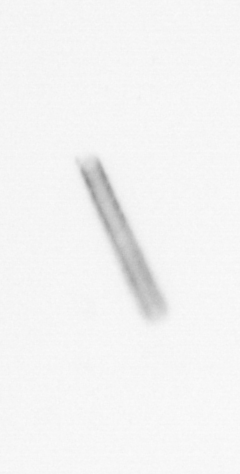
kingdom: Chromista
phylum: Ochrophyta
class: Bacillariophyceae
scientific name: Bacillariophyceae
